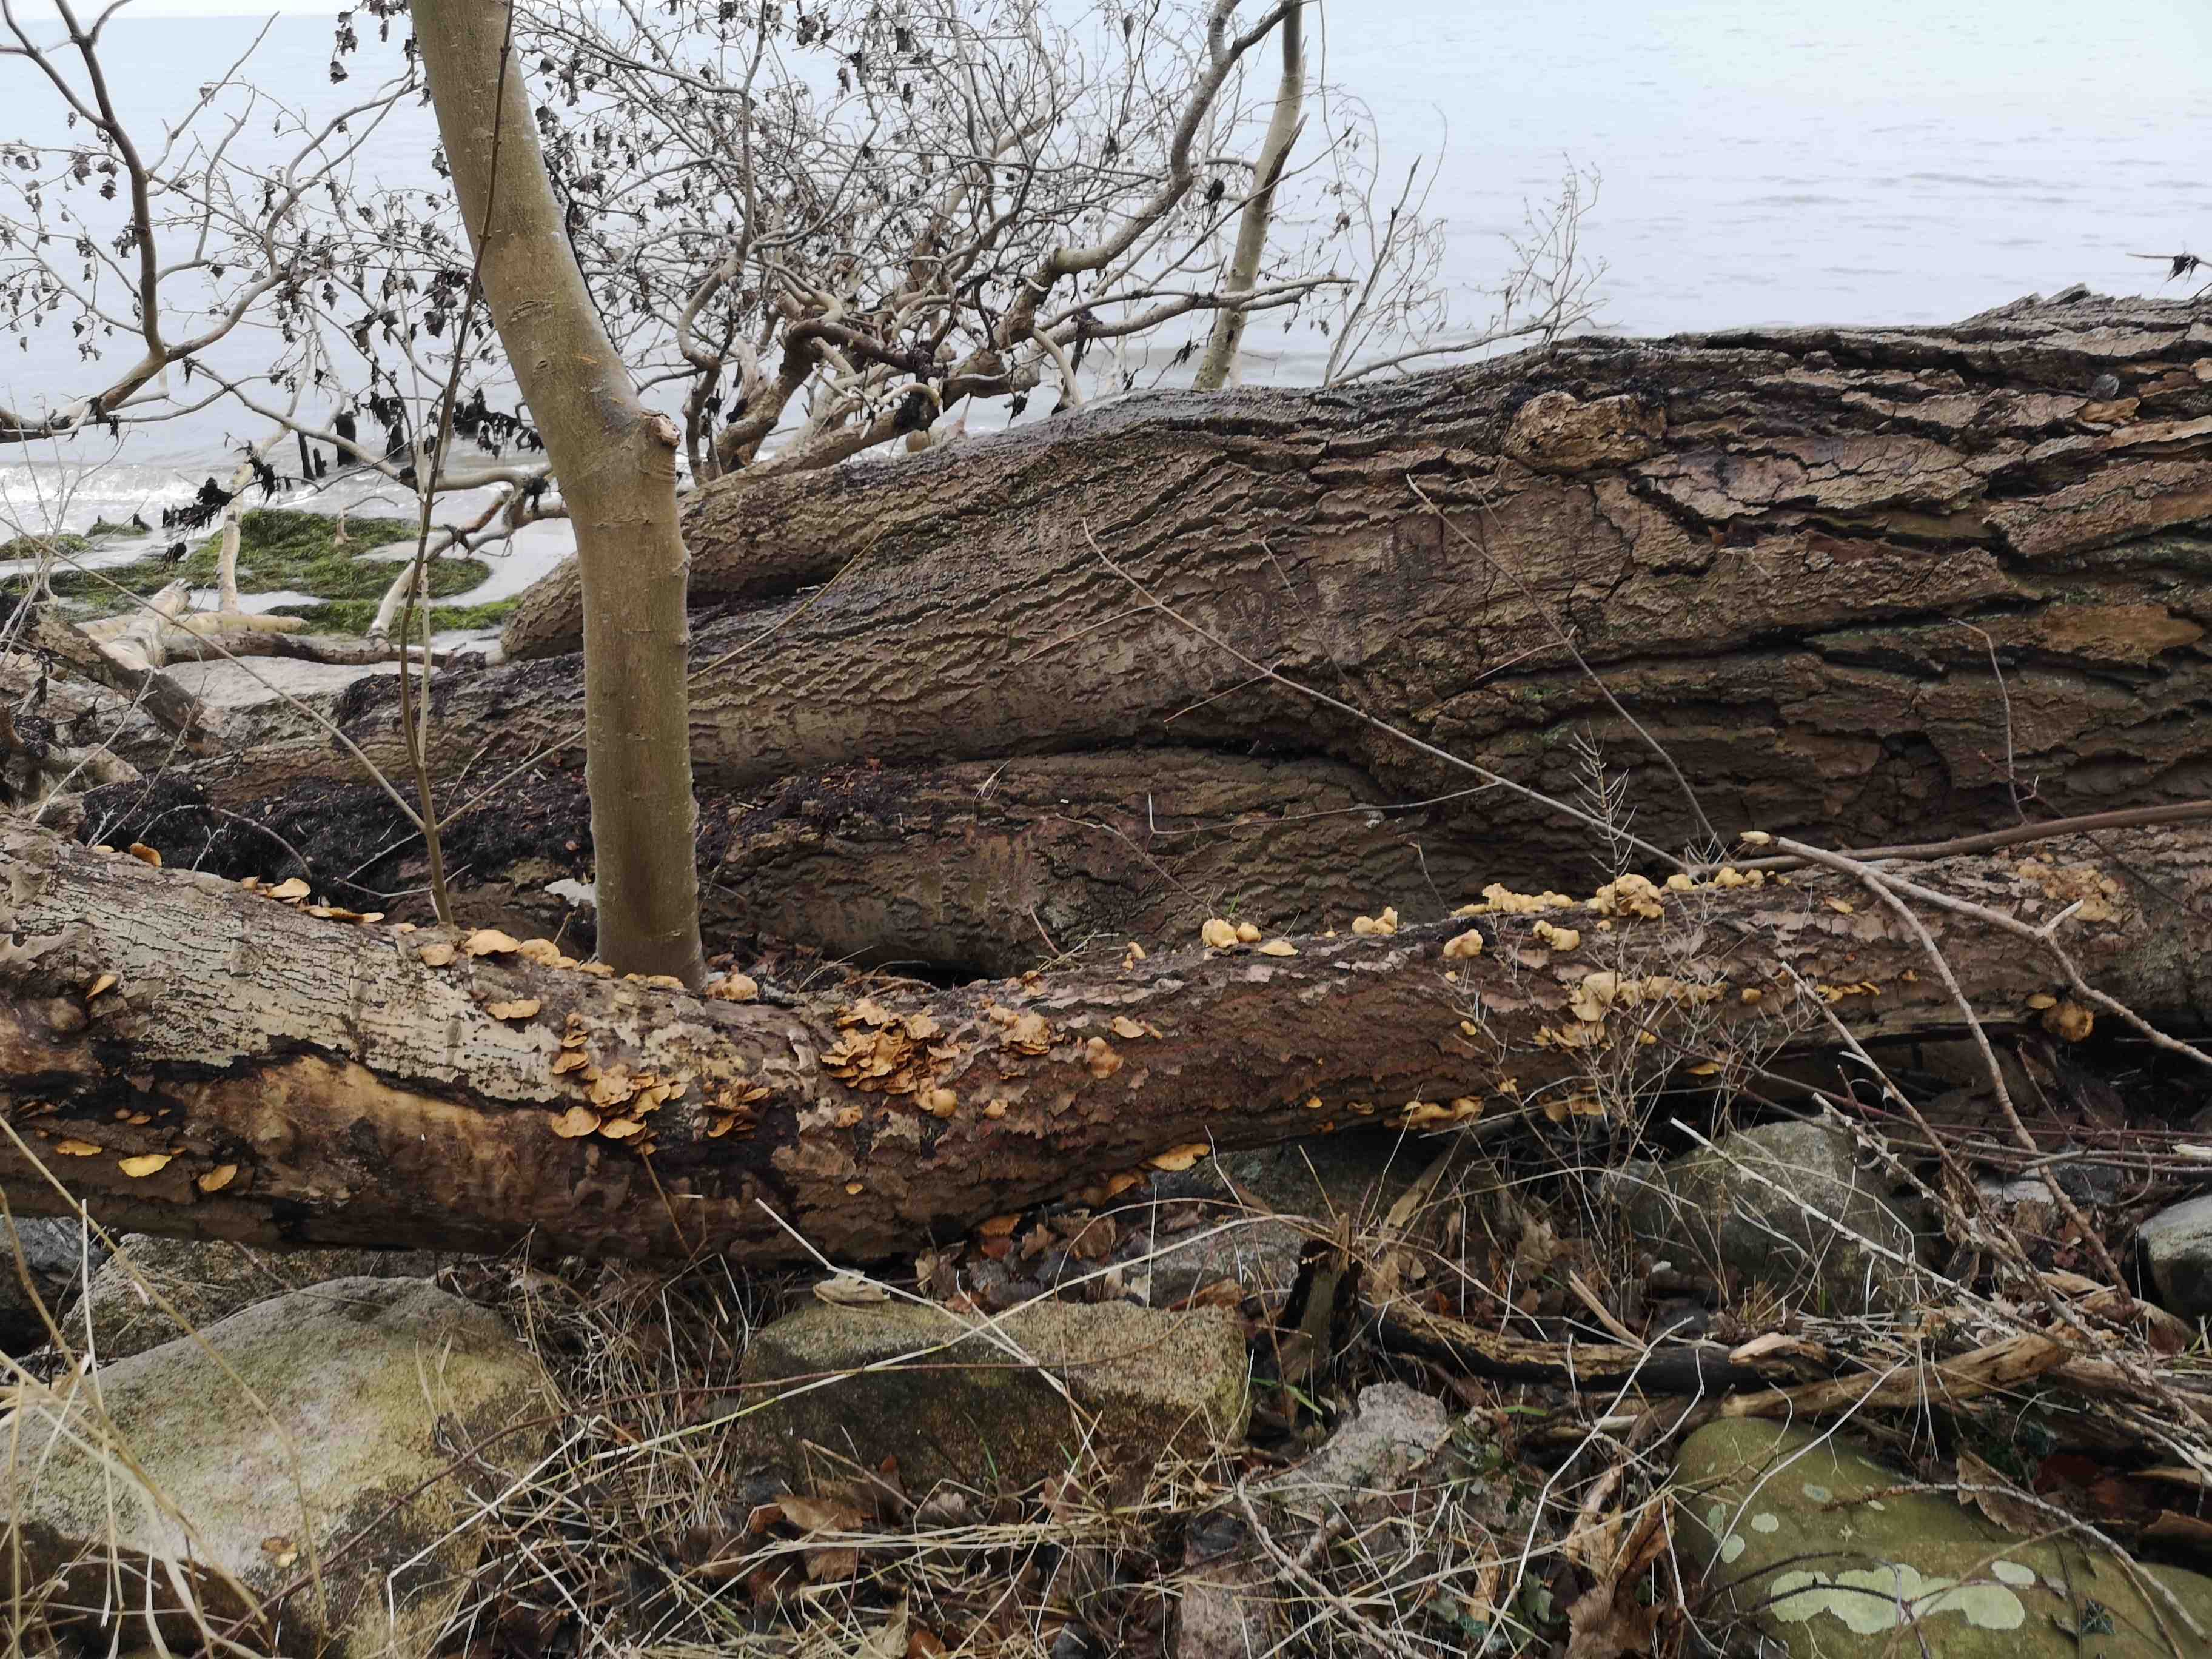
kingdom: Fungi
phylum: Basidiomycota
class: Agaricomycetes
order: Agaricales
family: Crepidotaceae
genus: Crepidotus
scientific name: Crepidotus mollis
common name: blød muslingesvamp
